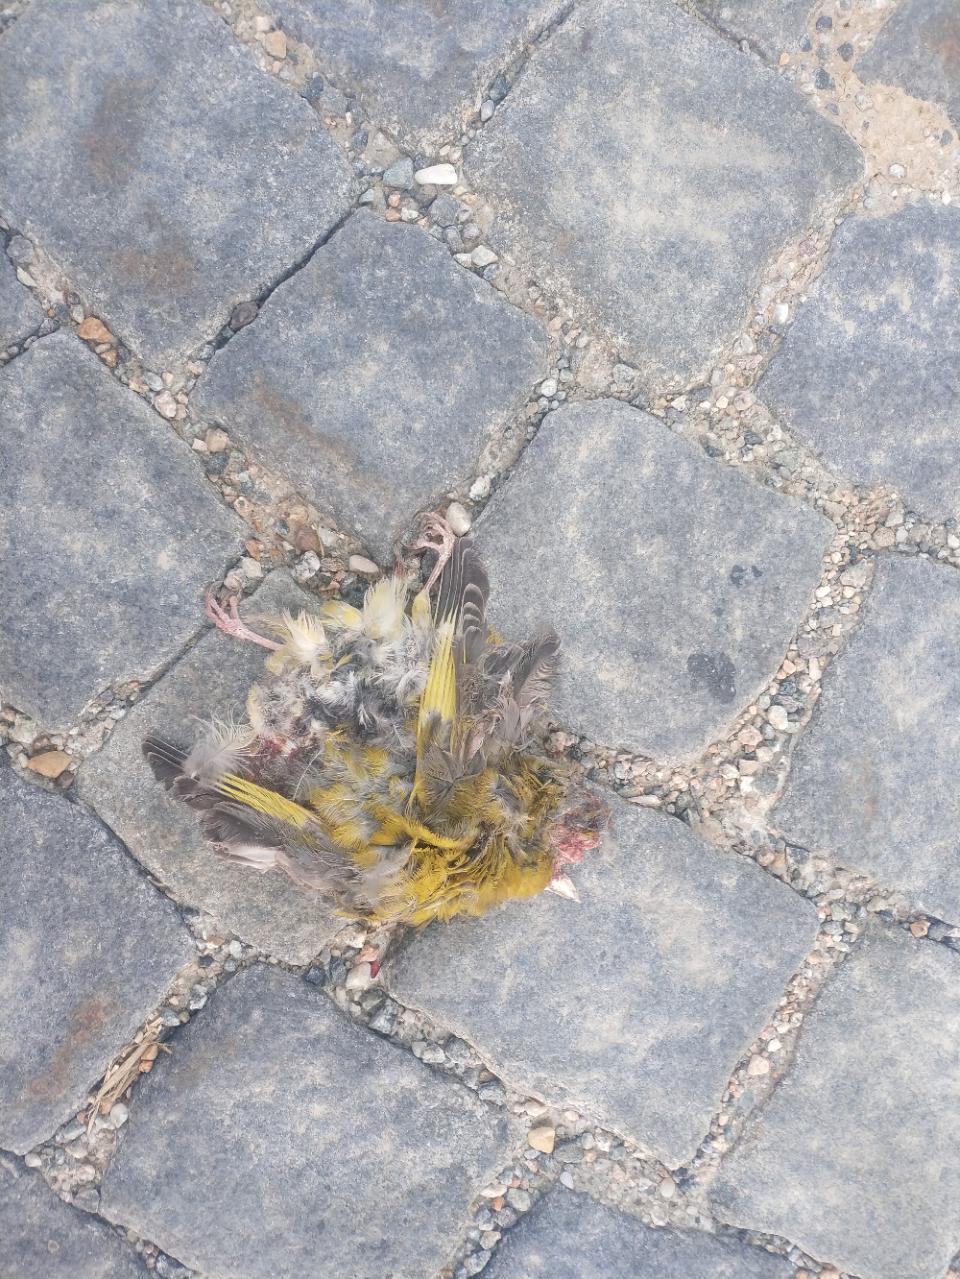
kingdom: Plantae
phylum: Tracheophyta
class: Liliopsida
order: Poales
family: Poaceae
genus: Chloris
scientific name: Chloris chloris
